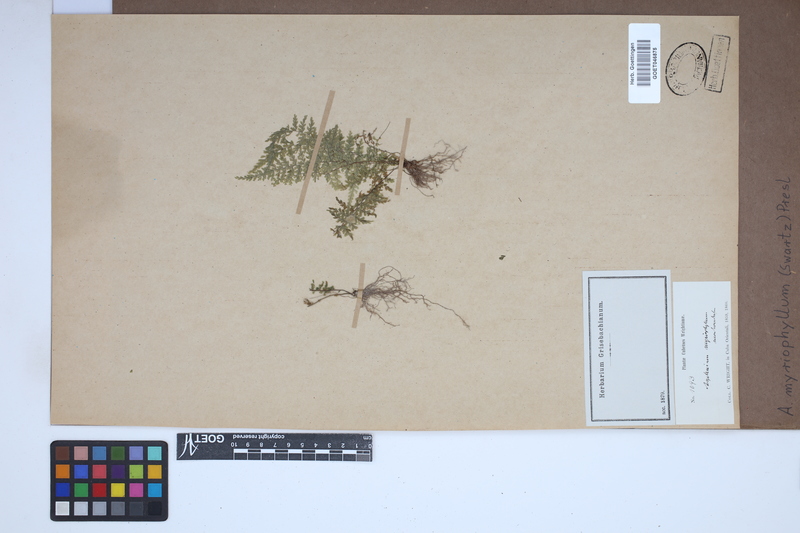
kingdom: Plantae
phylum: Tracheophyta
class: Polypodiopsida
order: Polypodiales
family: Aspleniaceae
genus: Asplenium
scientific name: Asplenium myriophyllum
